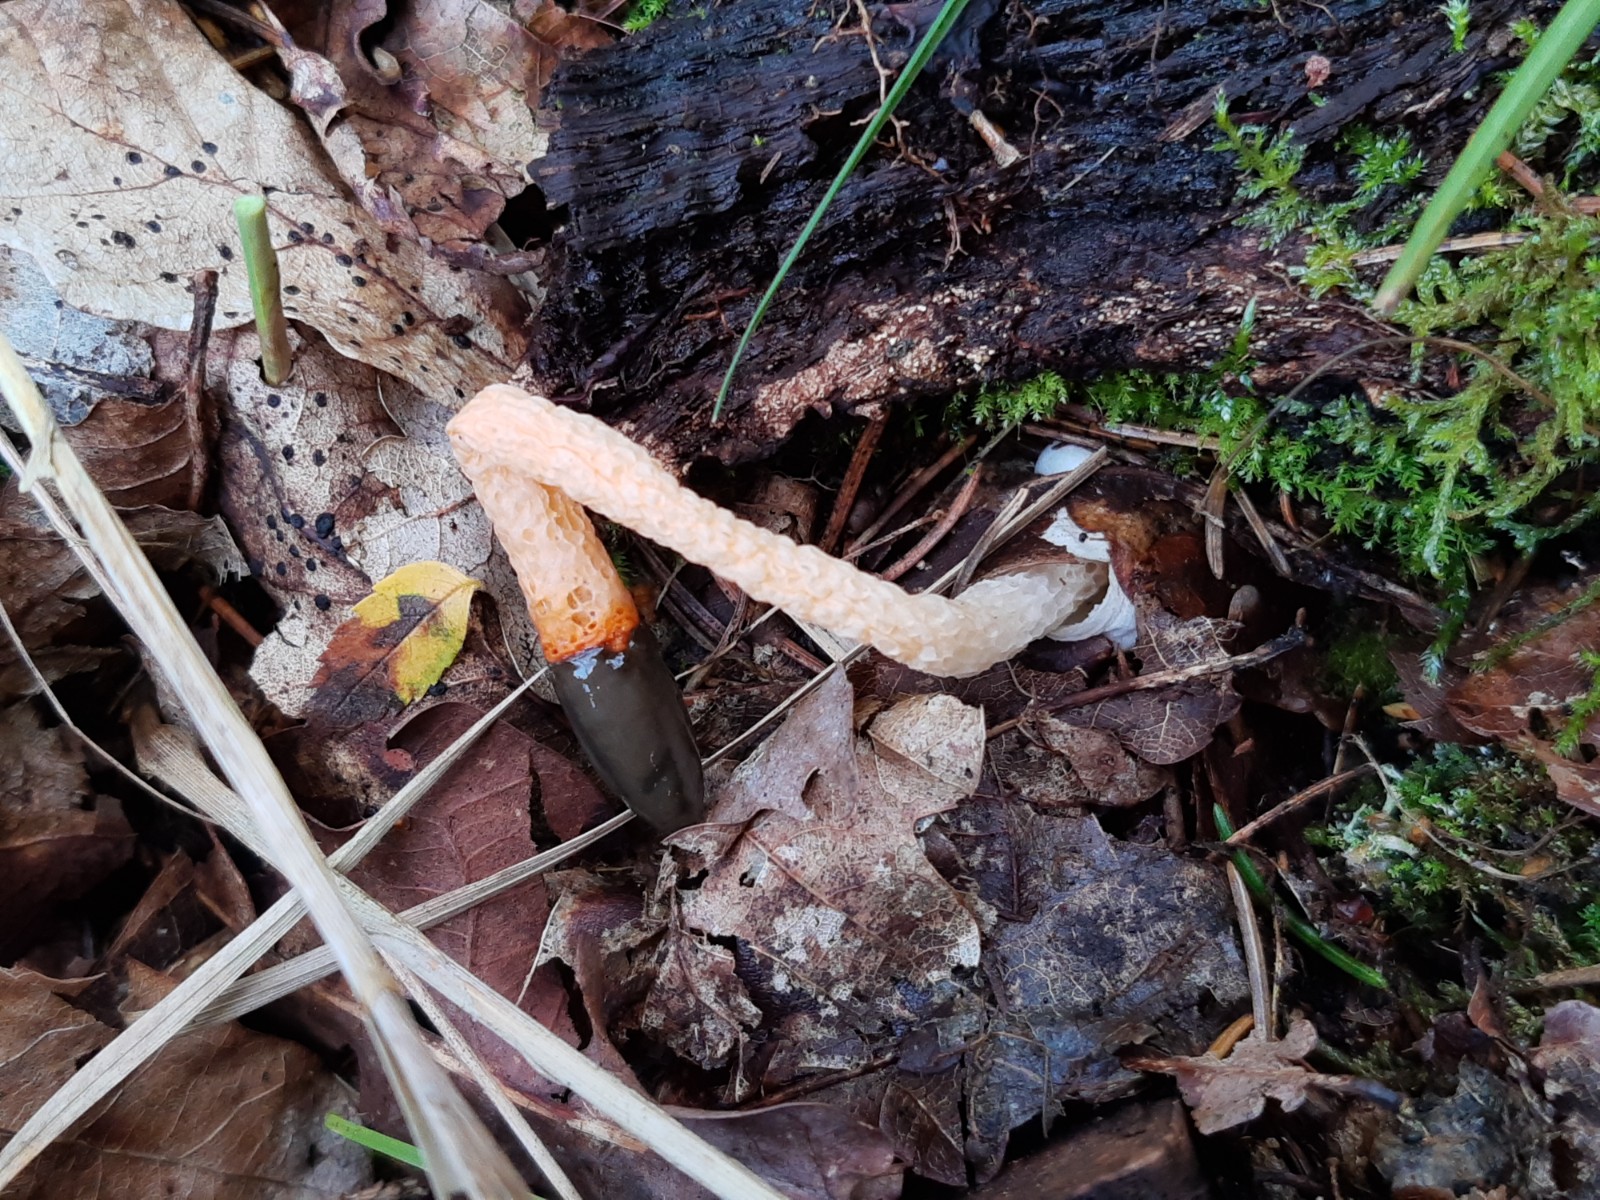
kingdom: Fungi
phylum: Basidiomycota
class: Agaricomycetes
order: Phallales
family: Phallaceae
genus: Mutinus
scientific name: Mutinus caninus
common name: hunde-stinksvamp
